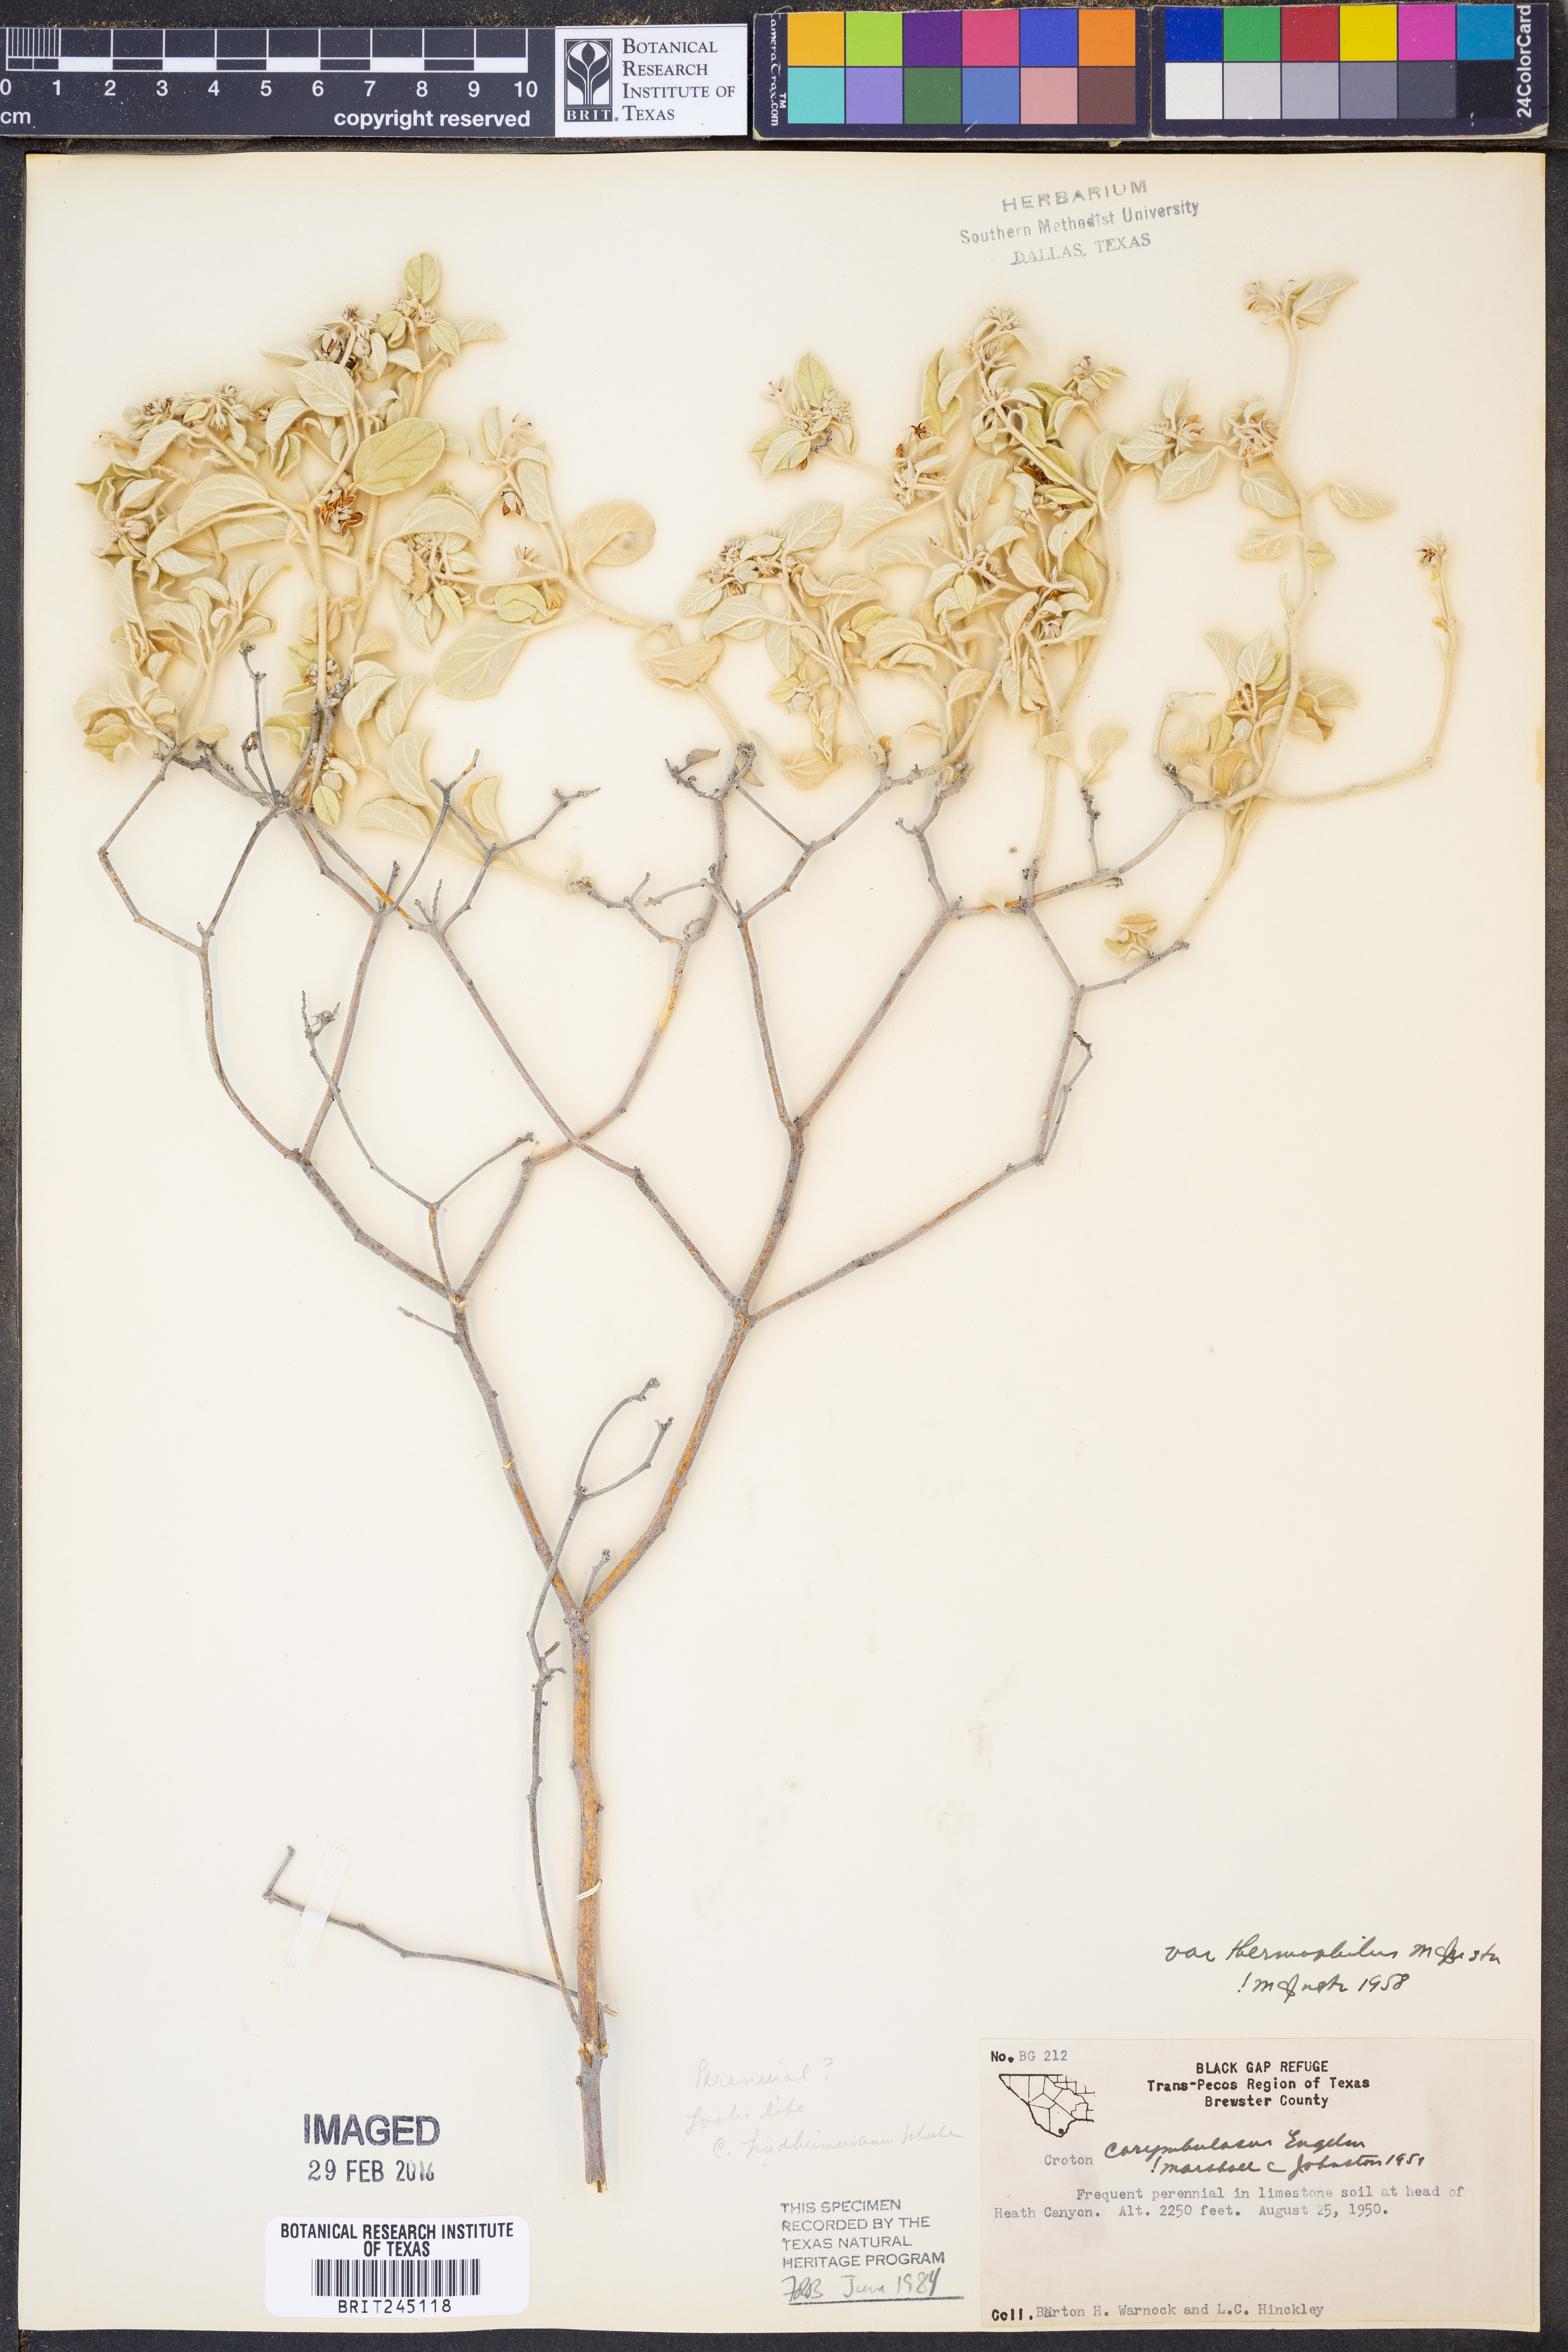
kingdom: Plantae
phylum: Tracheophyta
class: Magnoliopsida
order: Malpighiales
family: Euphorbiaceae
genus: Croton
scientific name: Croton pottsii
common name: Leatherweed
